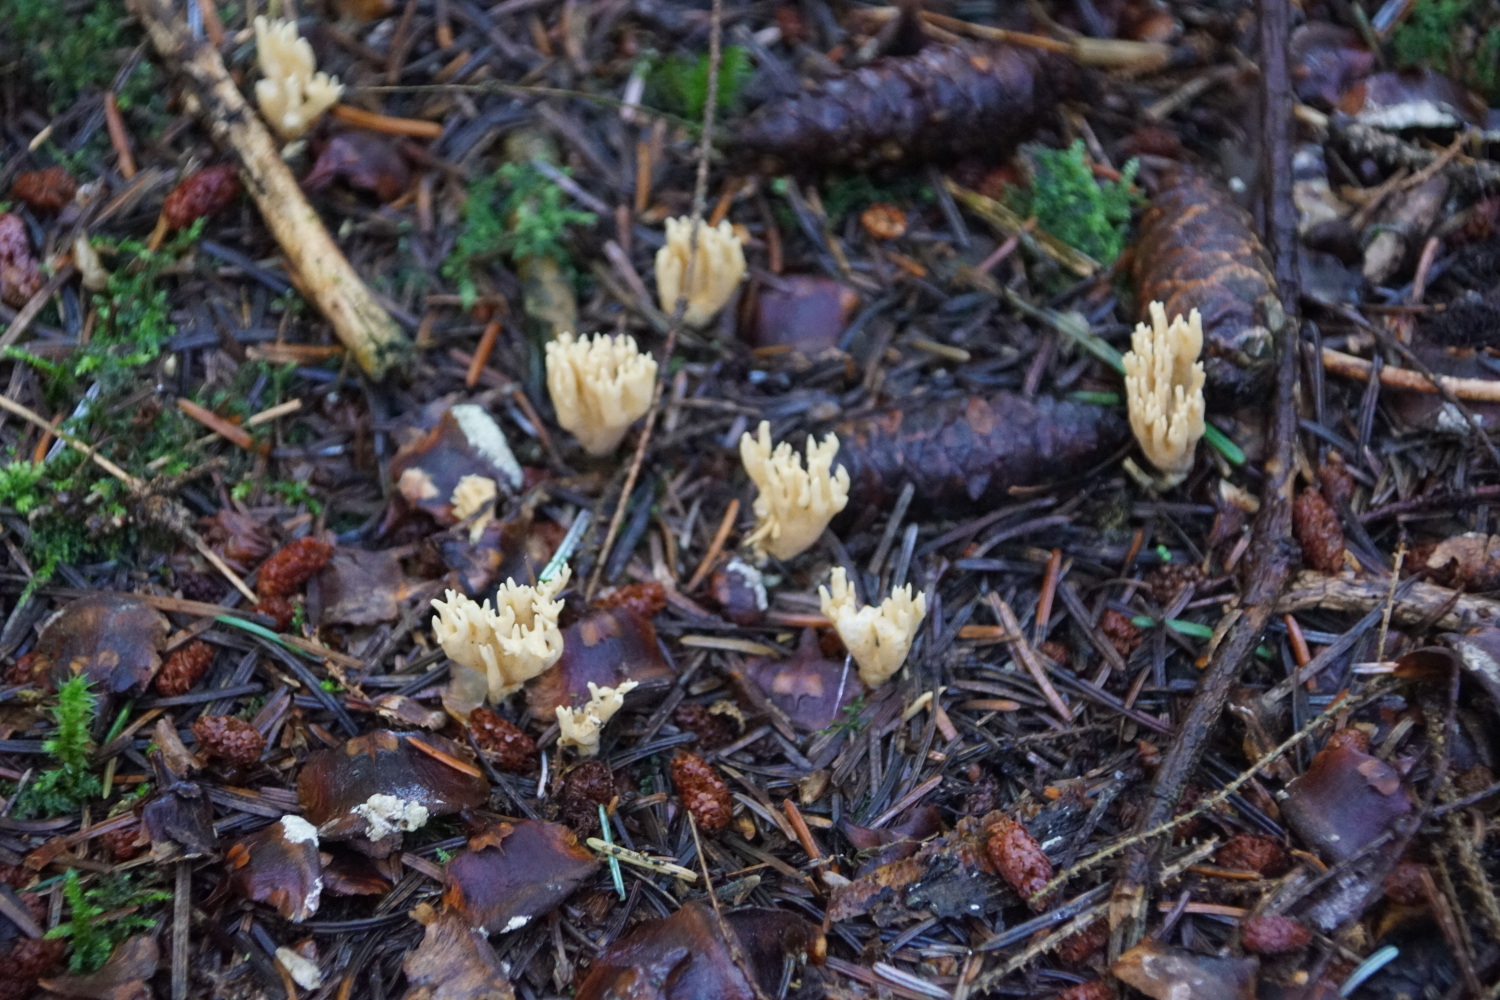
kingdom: Fungi
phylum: Basidiomycota
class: Agaricomycetes
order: Gomphales
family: Gomphaceae
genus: Phaeoclavulina
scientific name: Phaeoclavulina eumorpha
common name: gran-koralsvamp
